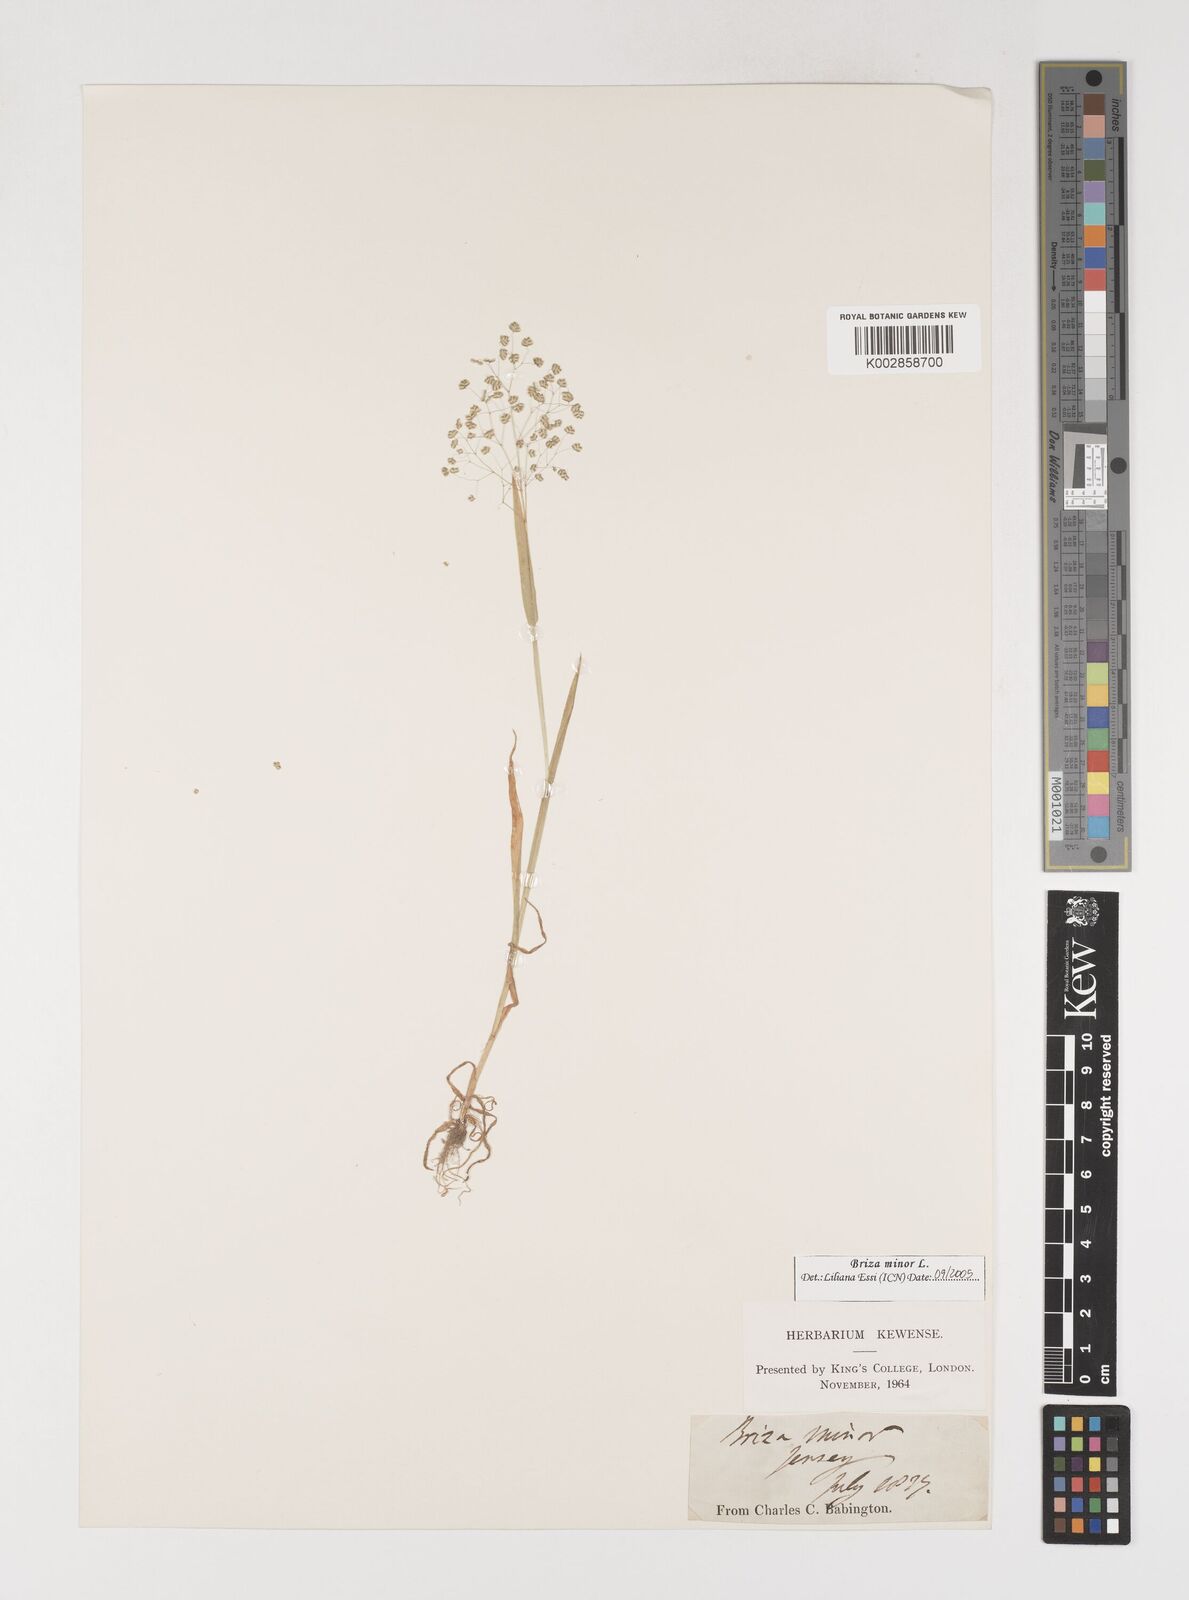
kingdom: Plantae
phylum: Tracheophyta
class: Liliopsida
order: Poales
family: Poaceae
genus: Briza
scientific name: Briza minor
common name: Lesser quaking-grass
